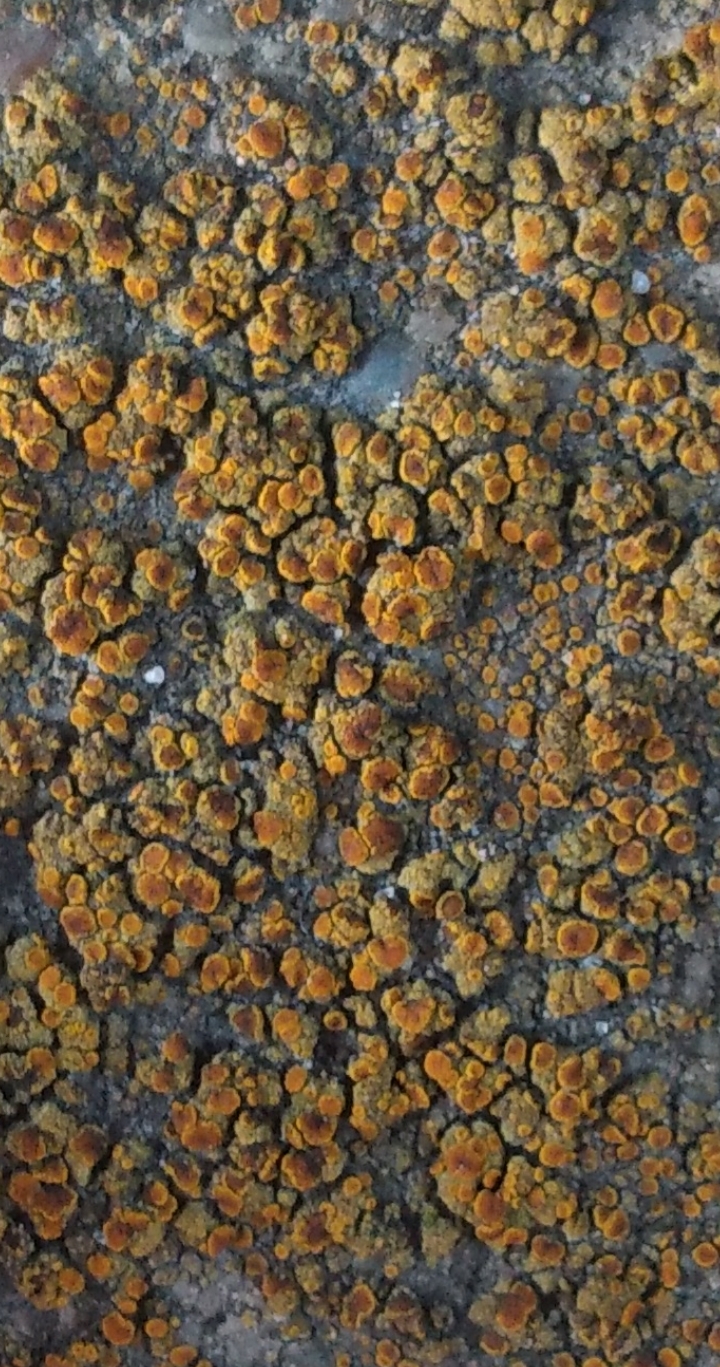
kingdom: Fungi
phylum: Ascomycota
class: Lecanoromycetes
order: Teloschistales
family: Teloschistaceae
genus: Caloplaca
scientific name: Caloplaca
